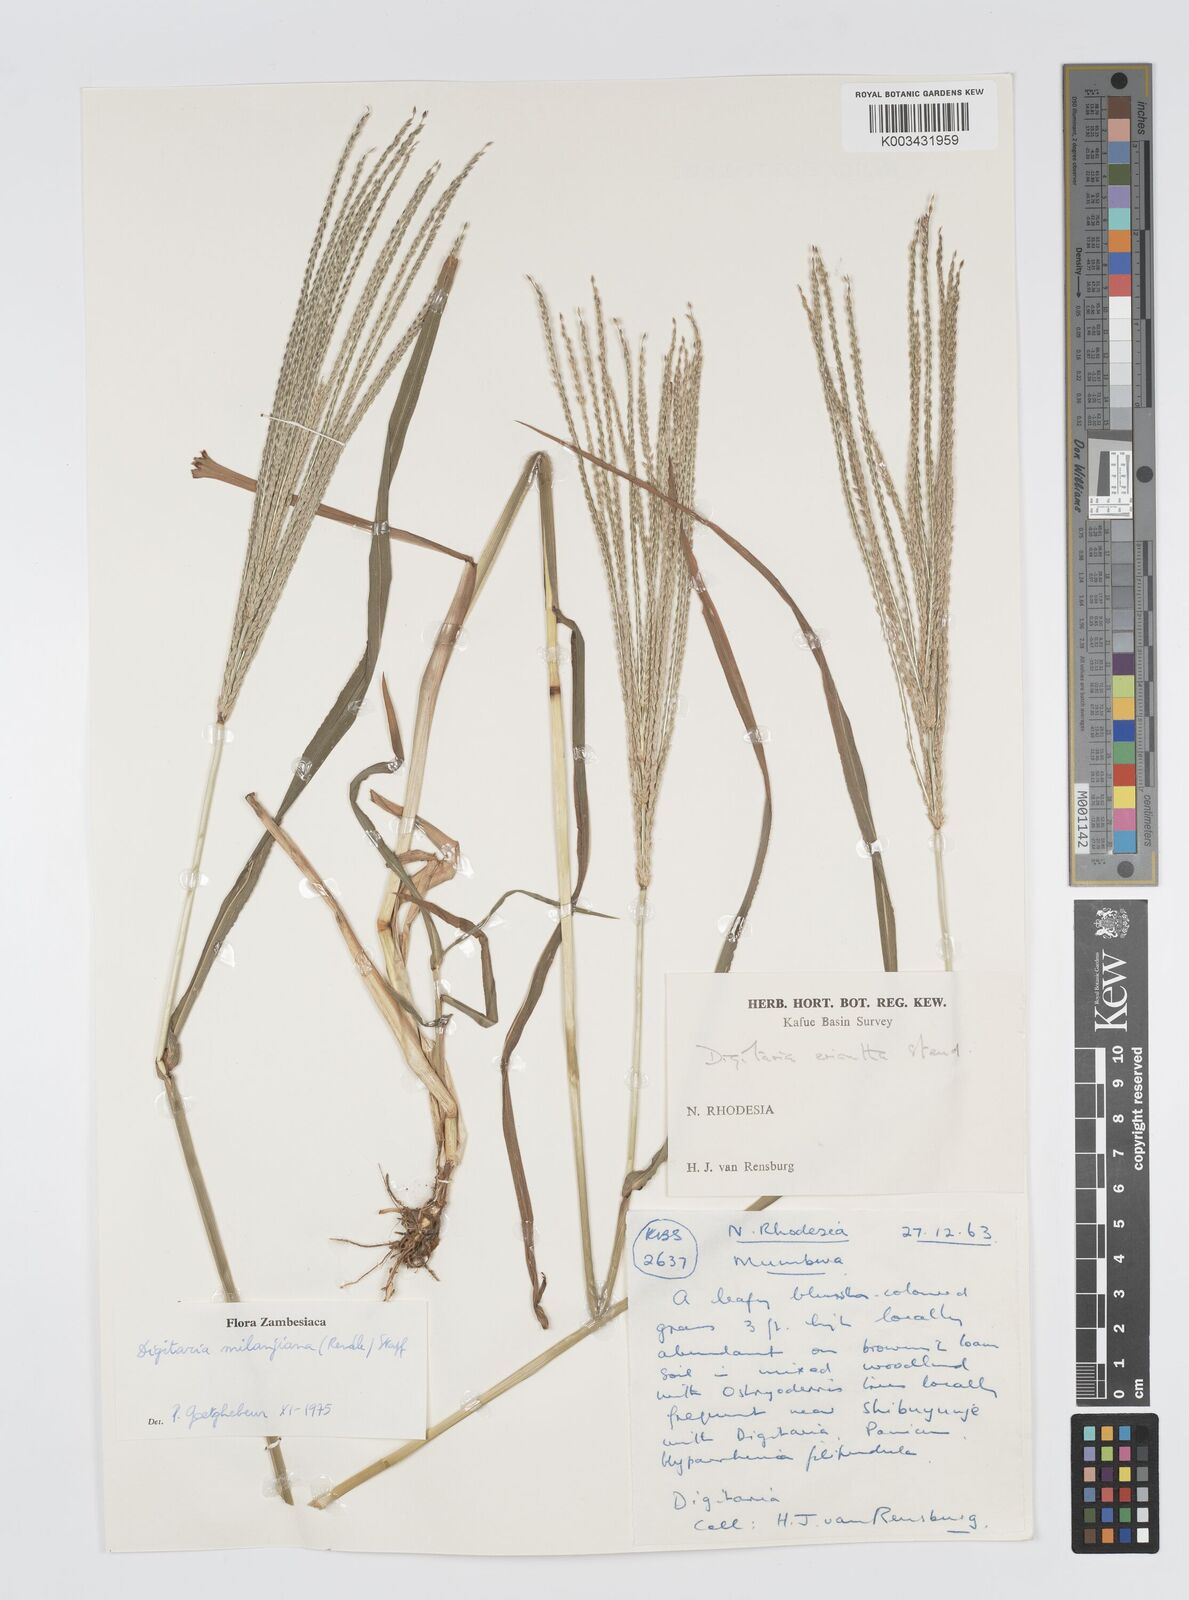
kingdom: Plantae
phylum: Tracheophyta
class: Liliopsida
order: Poales
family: Poaceae
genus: Digitaria
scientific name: Digitaria milanjiana
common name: Madagascar crabgrass
